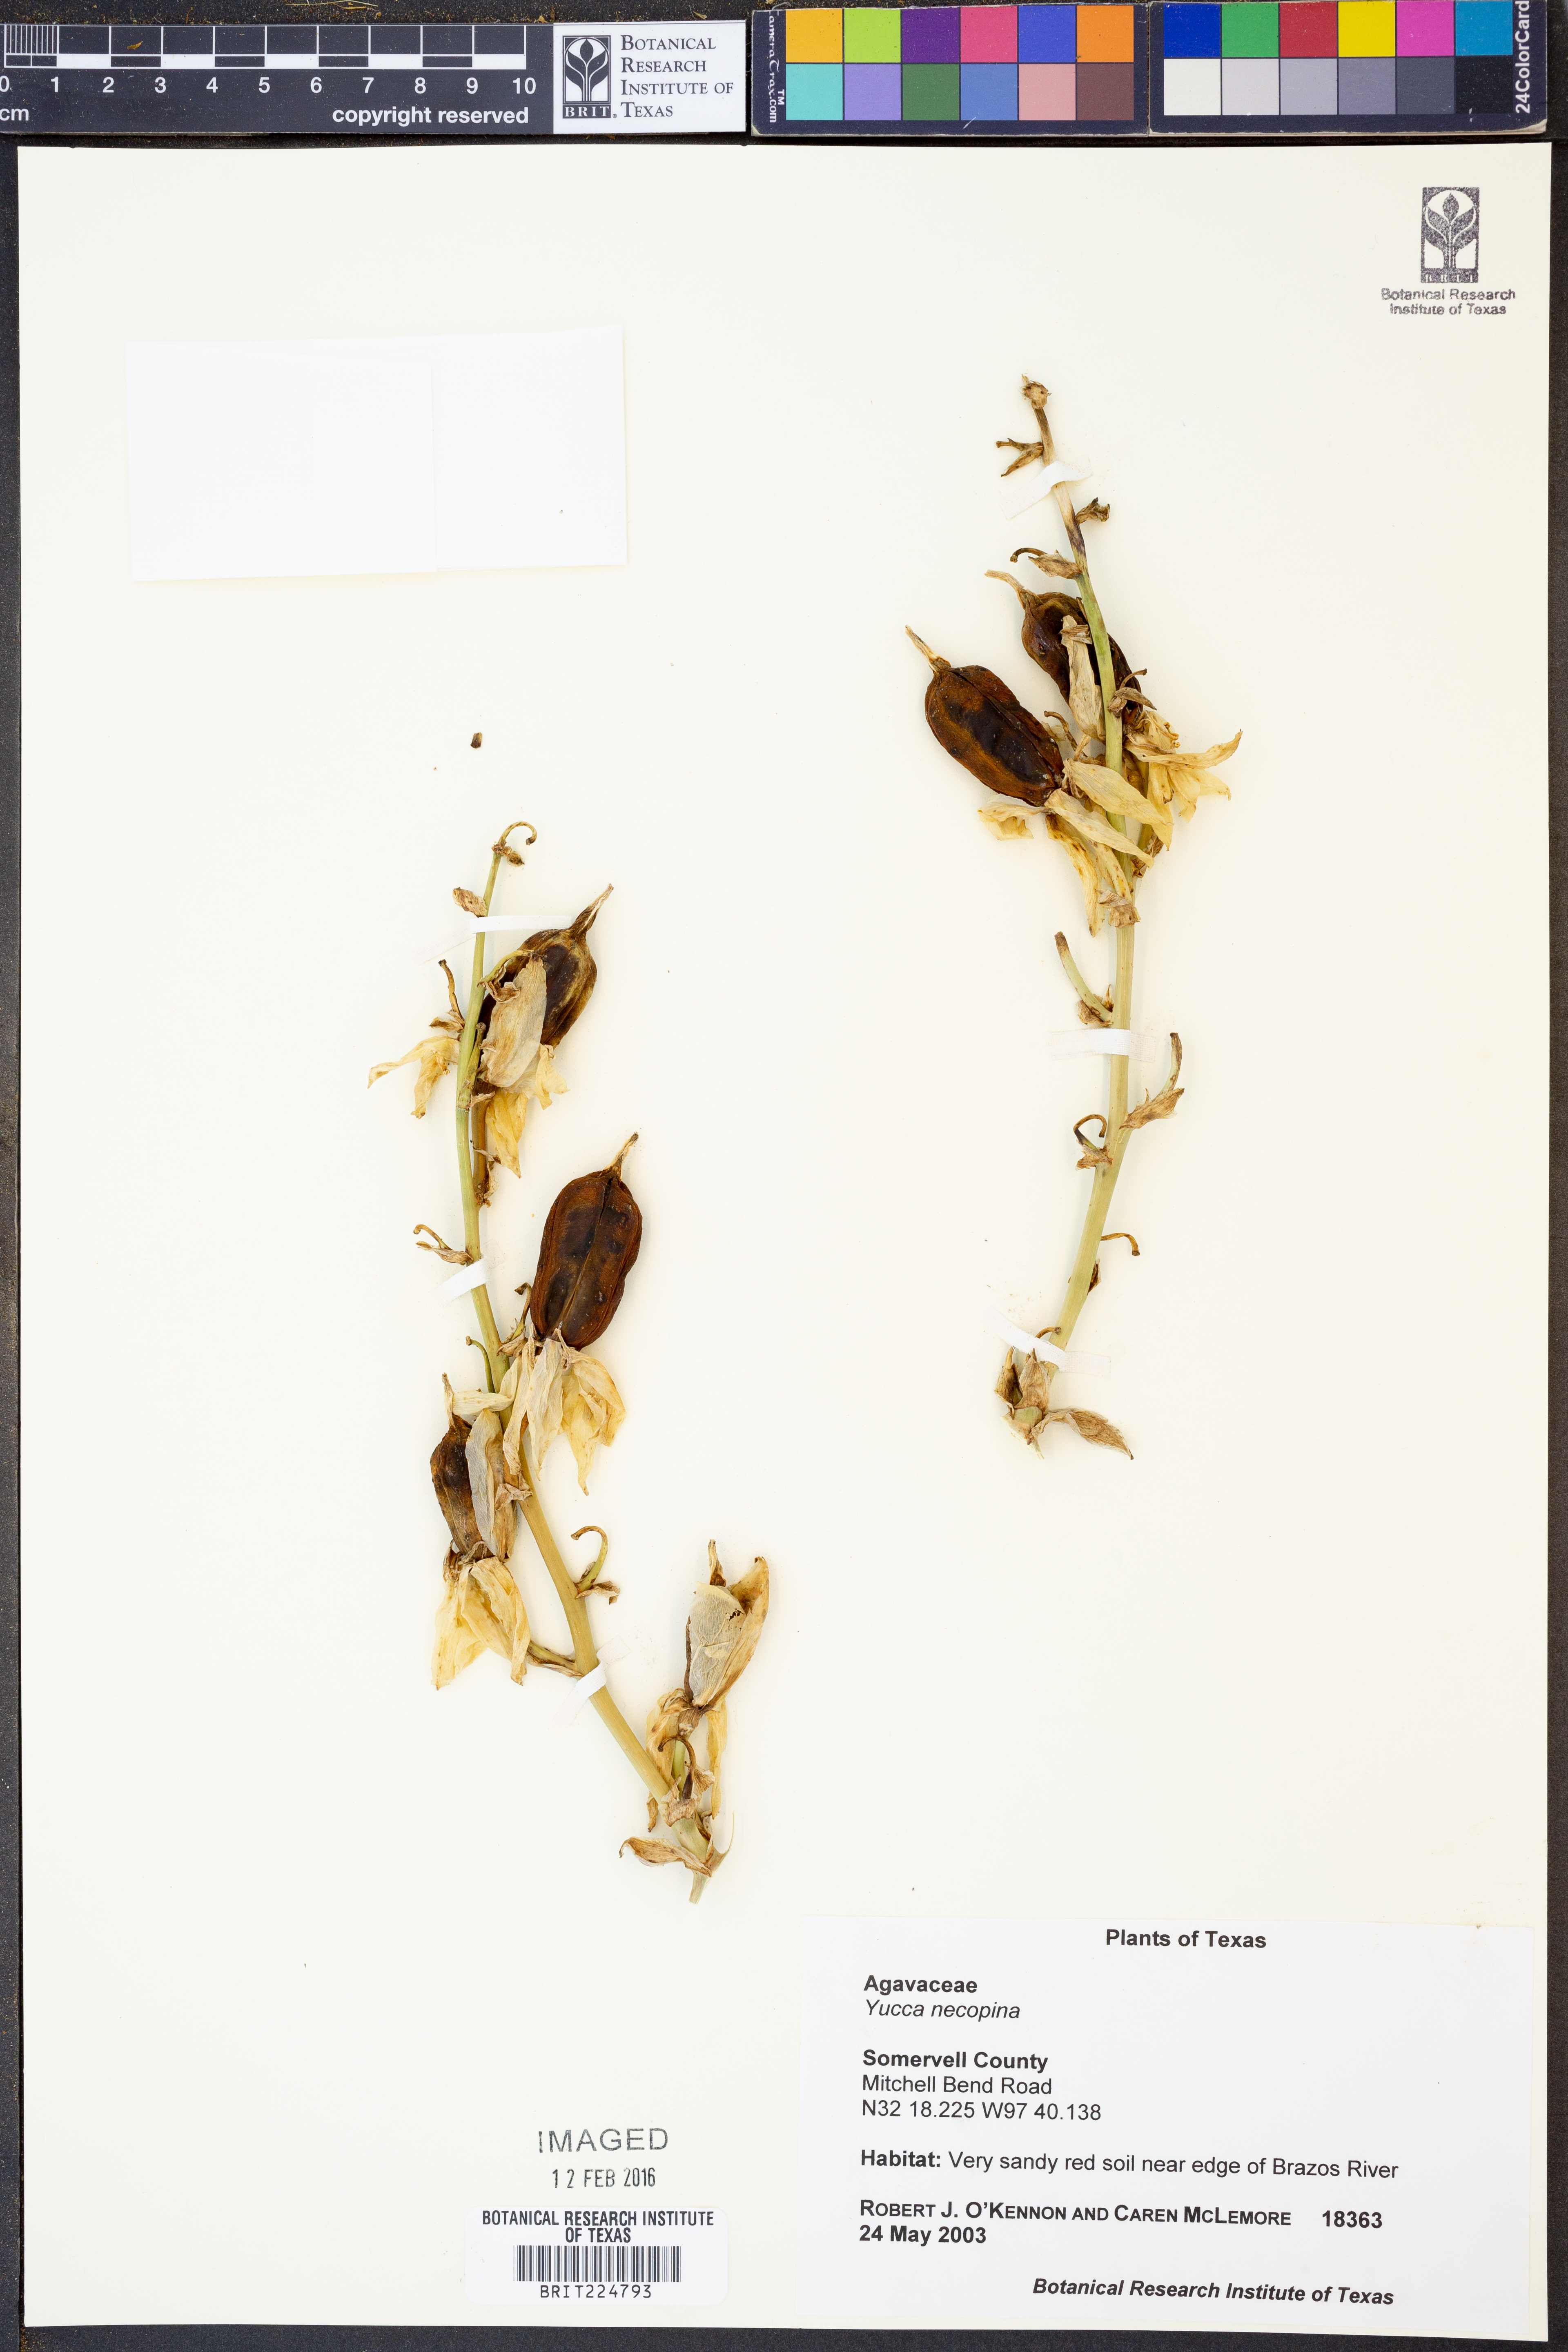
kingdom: Plantae
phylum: Tracheophyta
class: Liliopsida
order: Asparagales
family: Asparagaceae
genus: Yucca
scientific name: Yucca necopina
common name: Glen rose yucca
